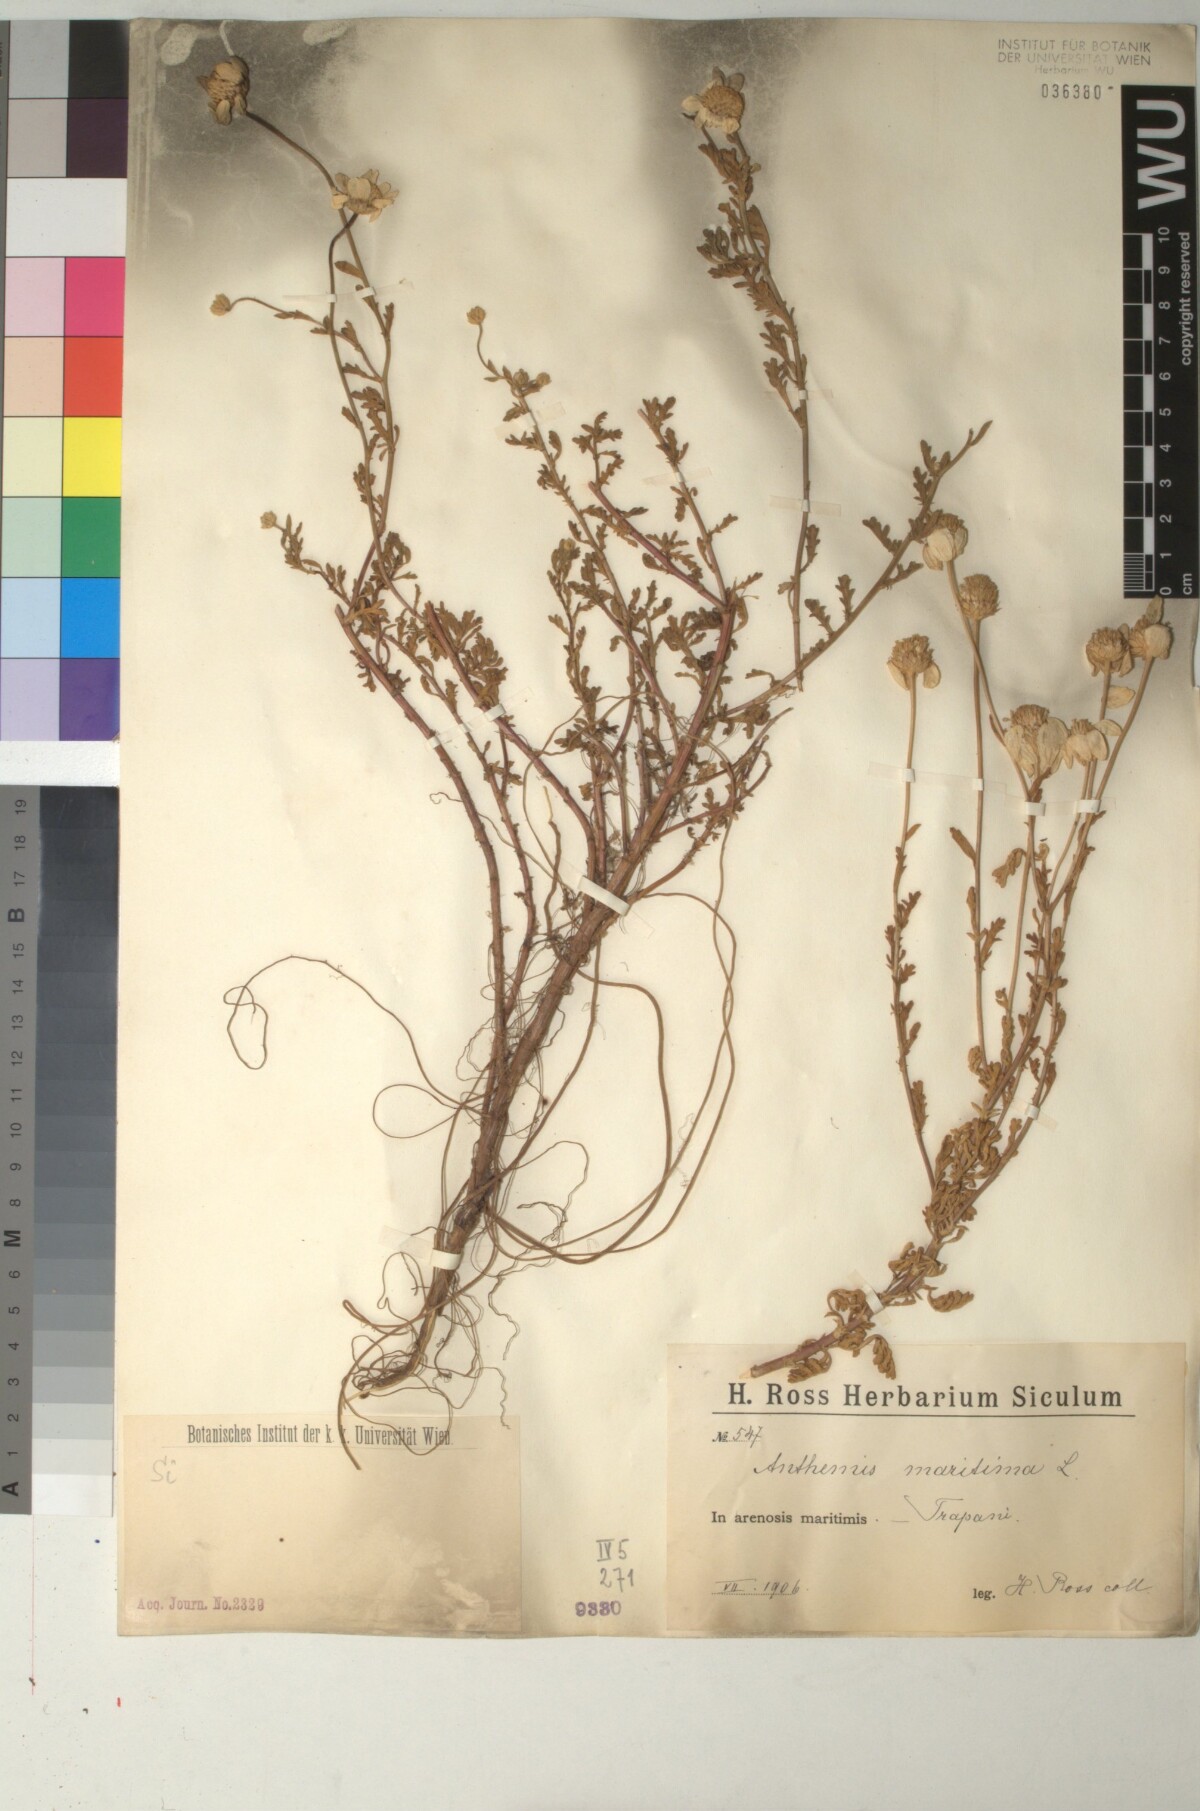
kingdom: Plantae
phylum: Tracheophyta
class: Magnoliopsida
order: Asterales
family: Asteraceae
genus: Anthemis
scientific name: Anthemis maritima
